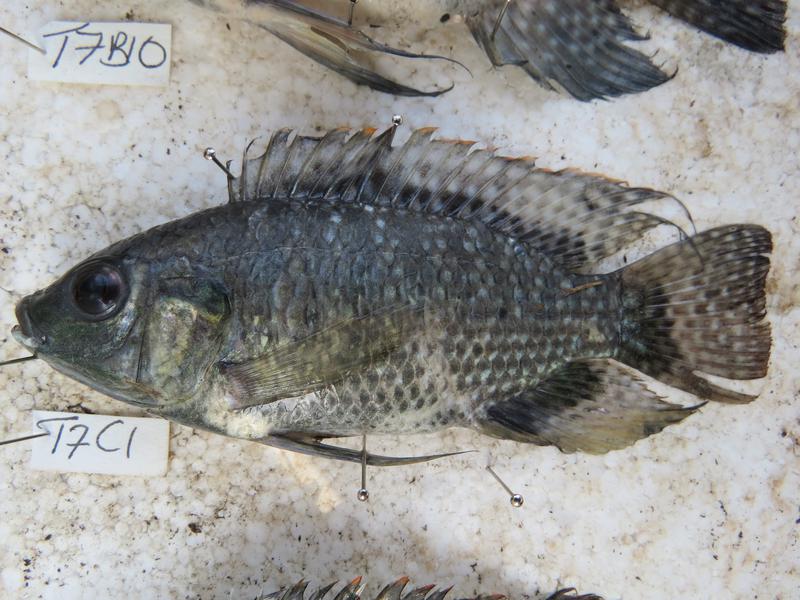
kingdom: Animalia
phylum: Chordata
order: Perciformes
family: Cichlidae
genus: Oreochromis
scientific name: Oreochromis leucostictus
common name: Blue spotted tilapia
